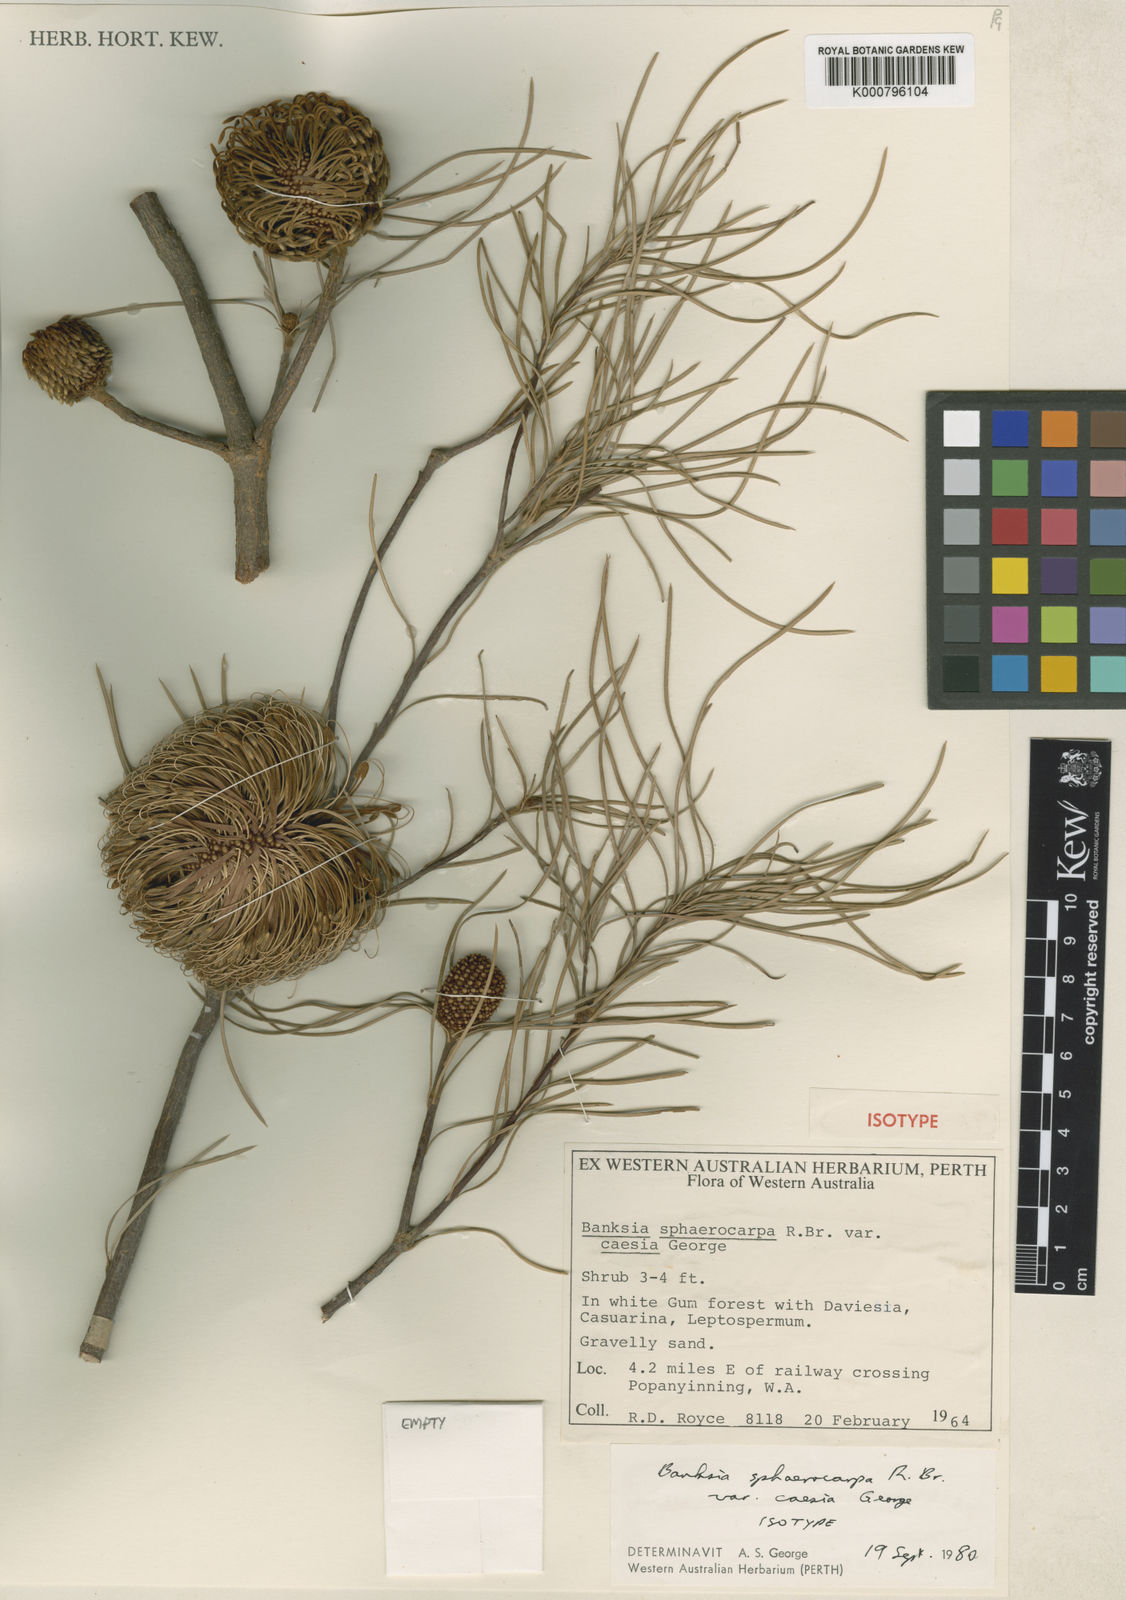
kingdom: Plantae
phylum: Tracheophyta
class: Magnoliopsida
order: Proteales
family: Proteaceae
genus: Banksia
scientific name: Banksia sphaerocarpa
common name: Fox banksia
